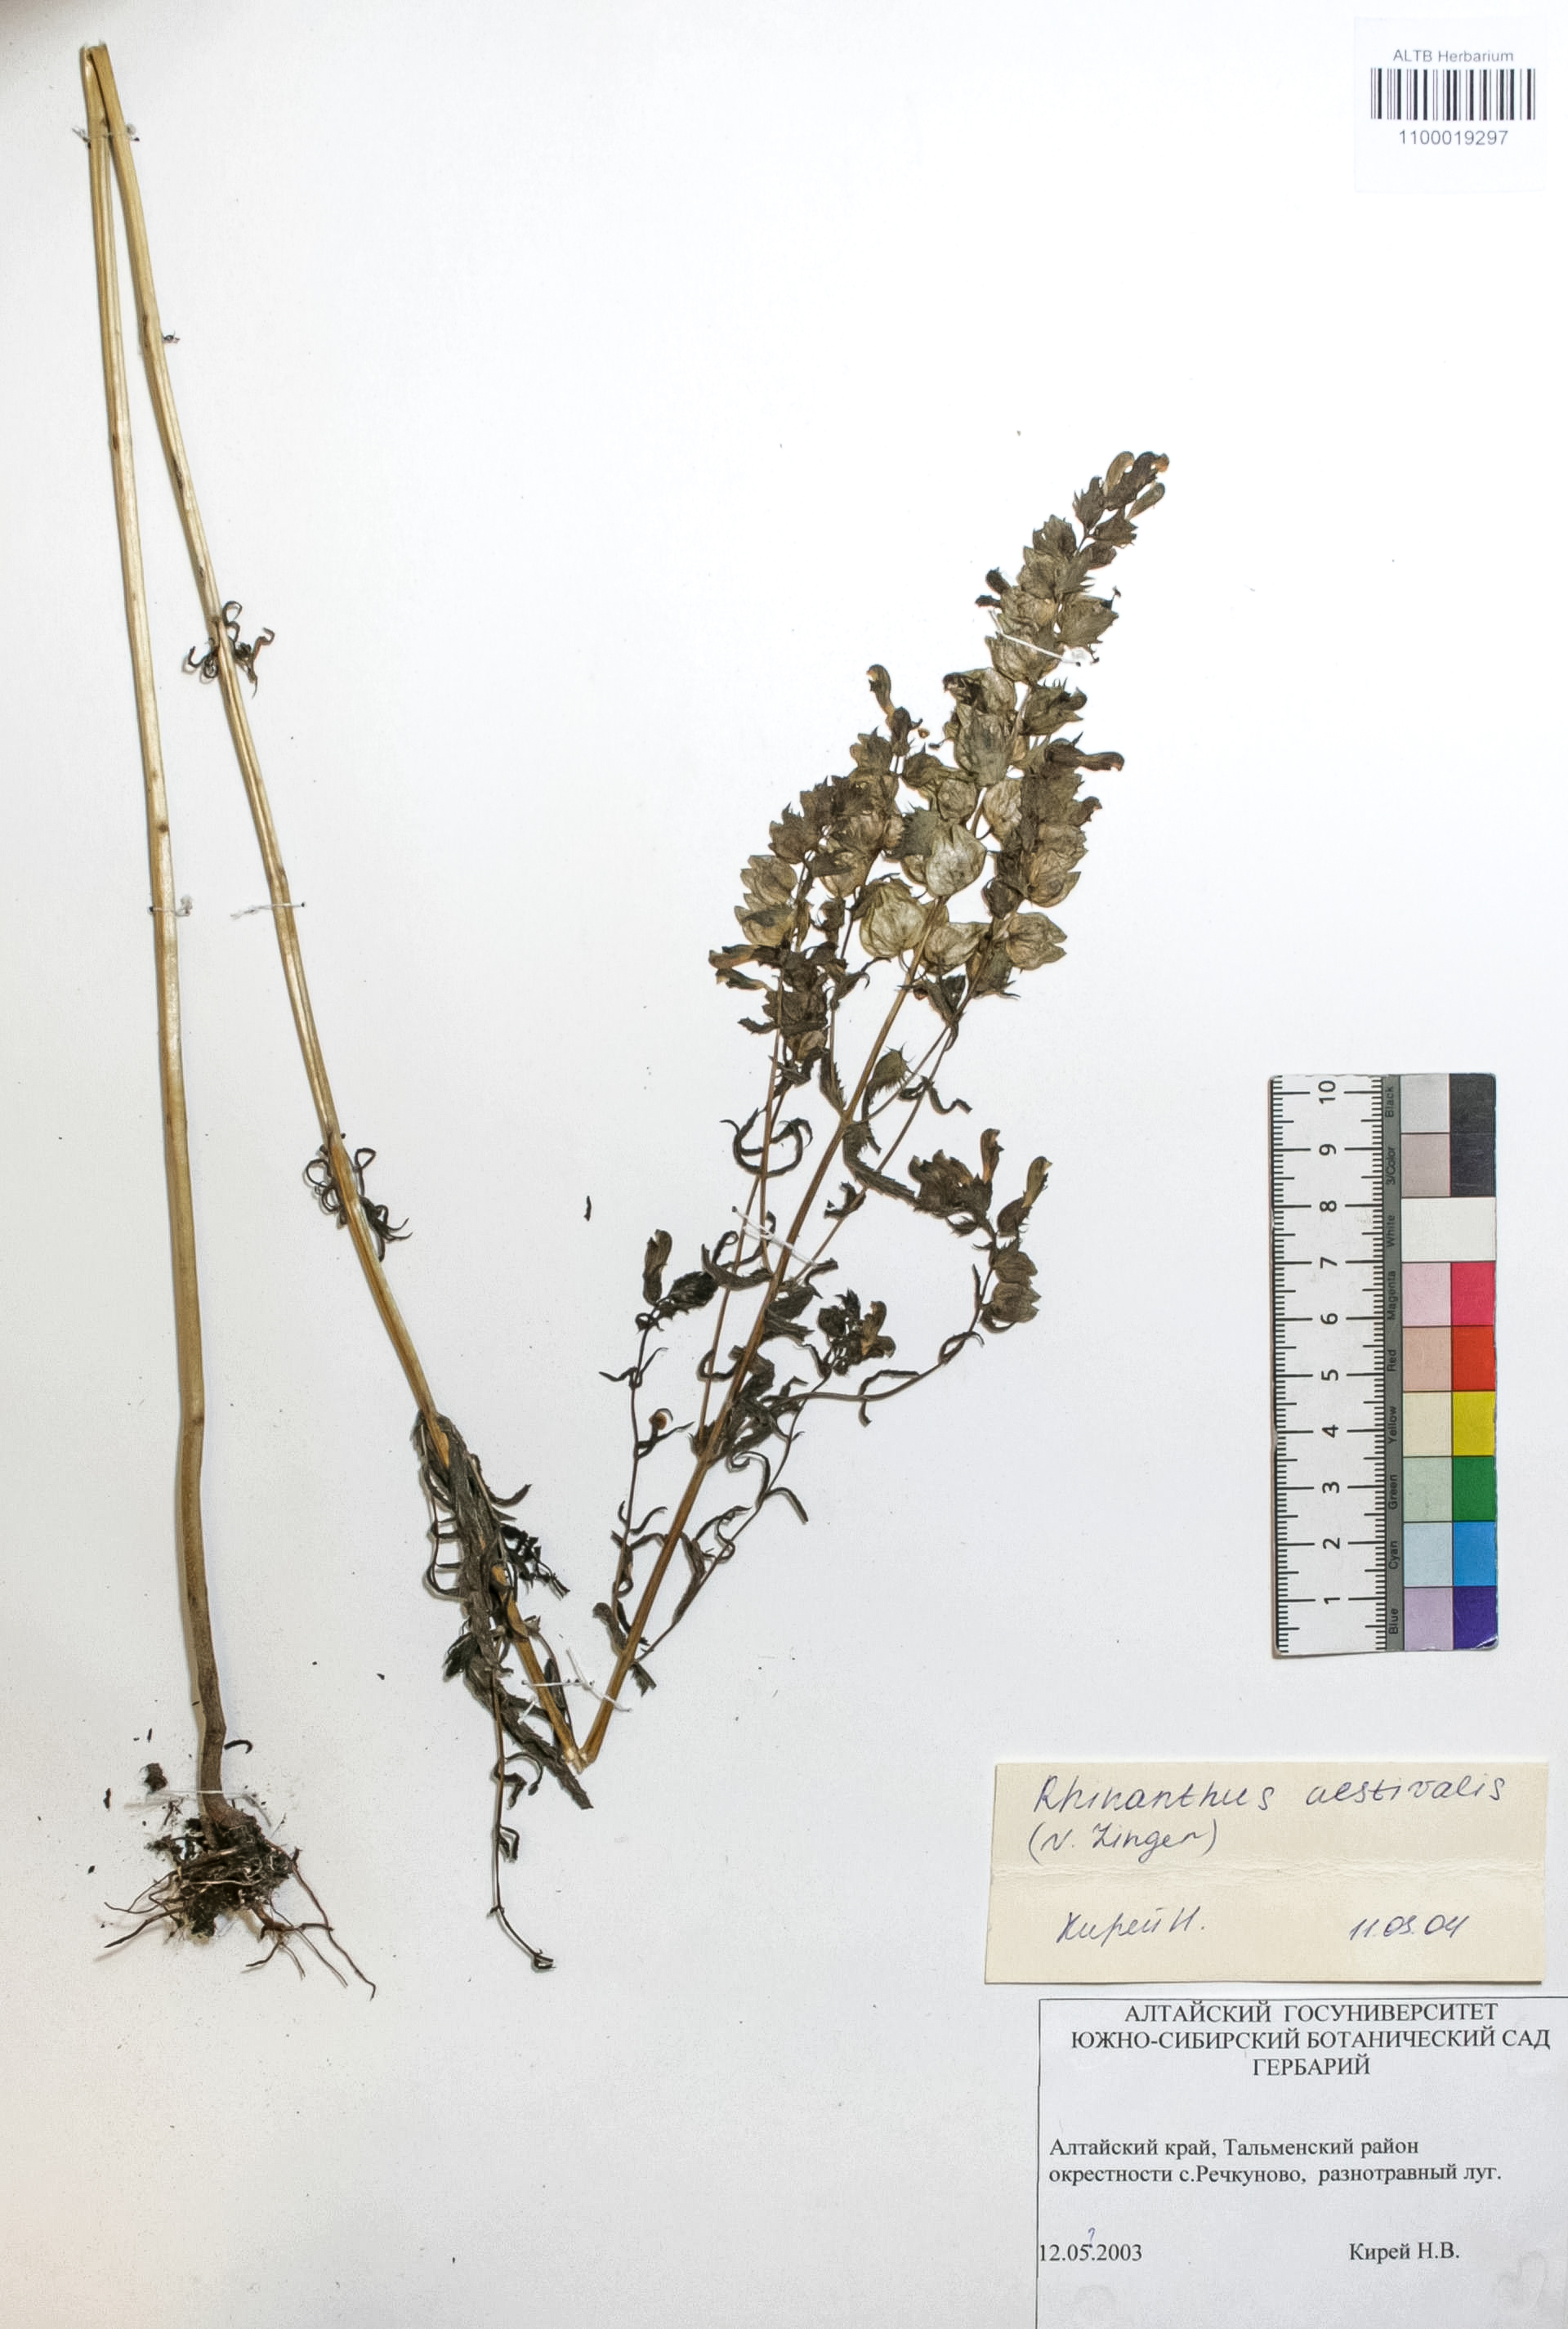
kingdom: Plantae
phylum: Tracheophyta
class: Magnoliopsida
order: Lamiales
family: Orobanchaceae
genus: Rhinanthus
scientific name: Rhinanthus serotinus
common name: Late-flowering yellow rattle
